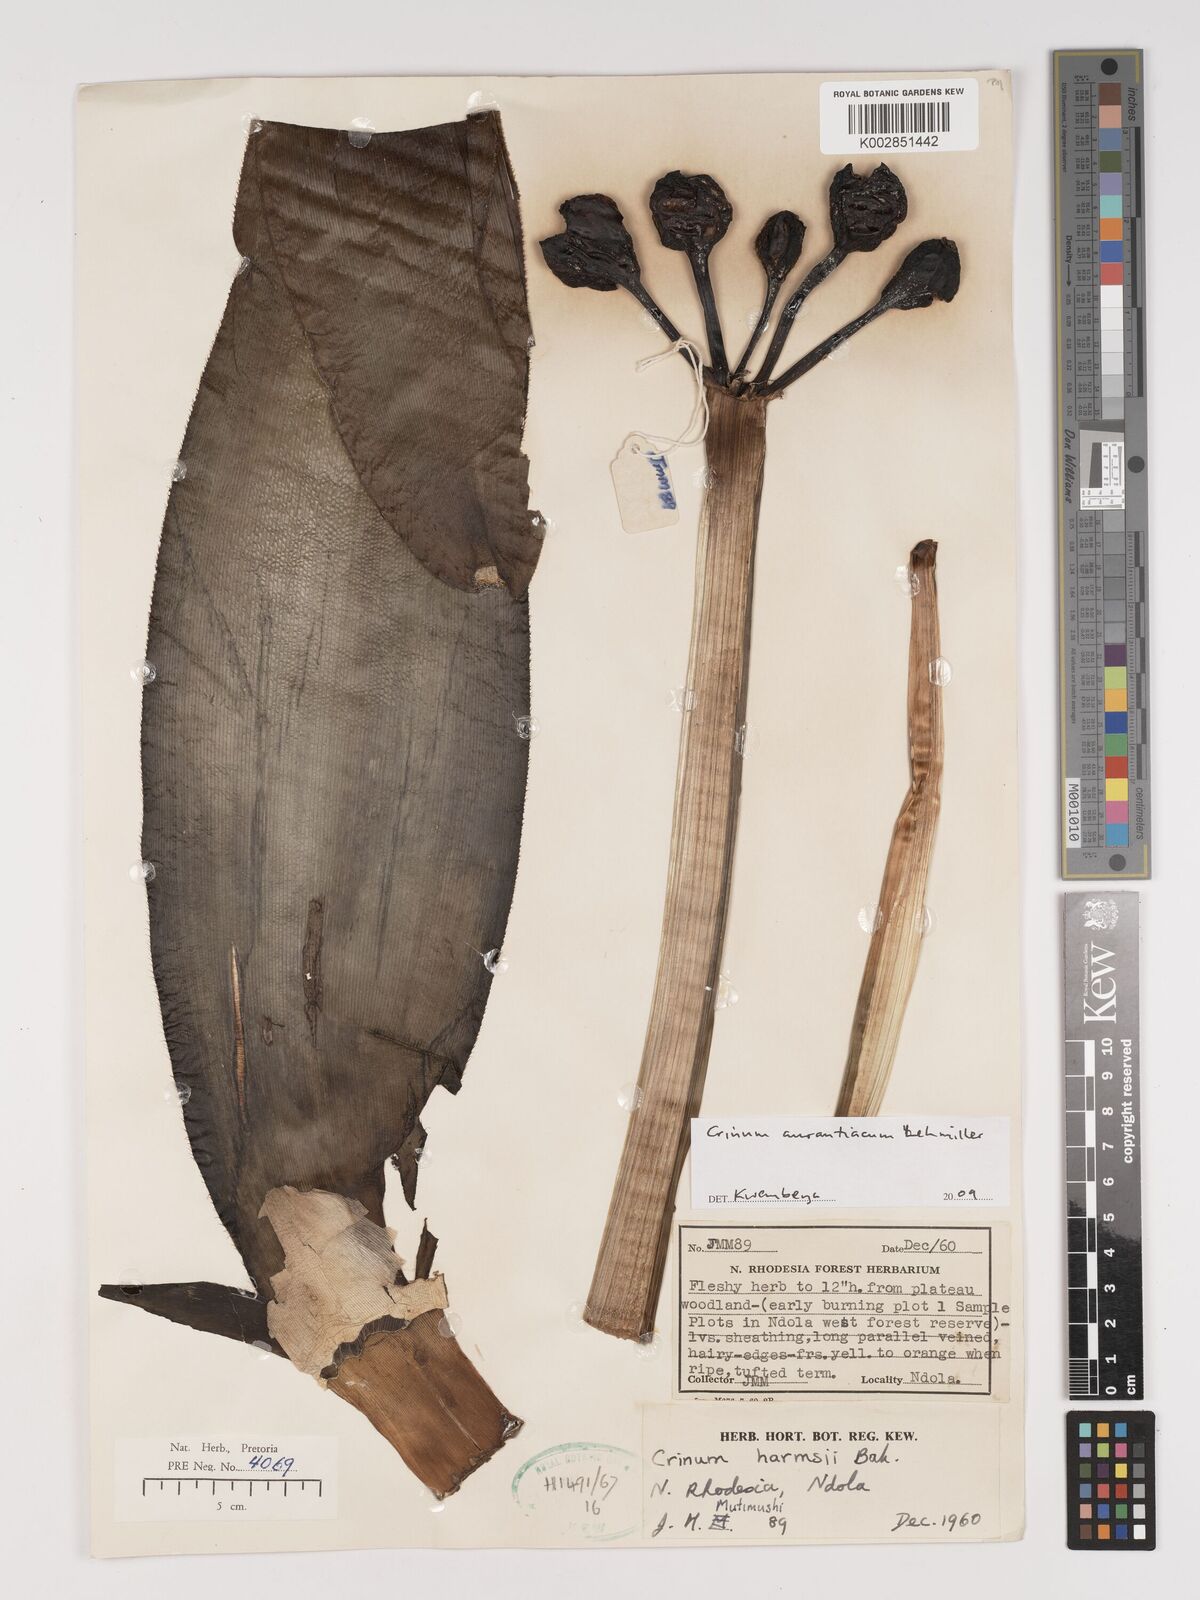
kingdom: Plantae
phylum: Tracheophyta
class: Liliopsida
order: Asparagales
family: Amaryllidaceae
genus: Crinum
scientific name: Crinum aurantiacum
